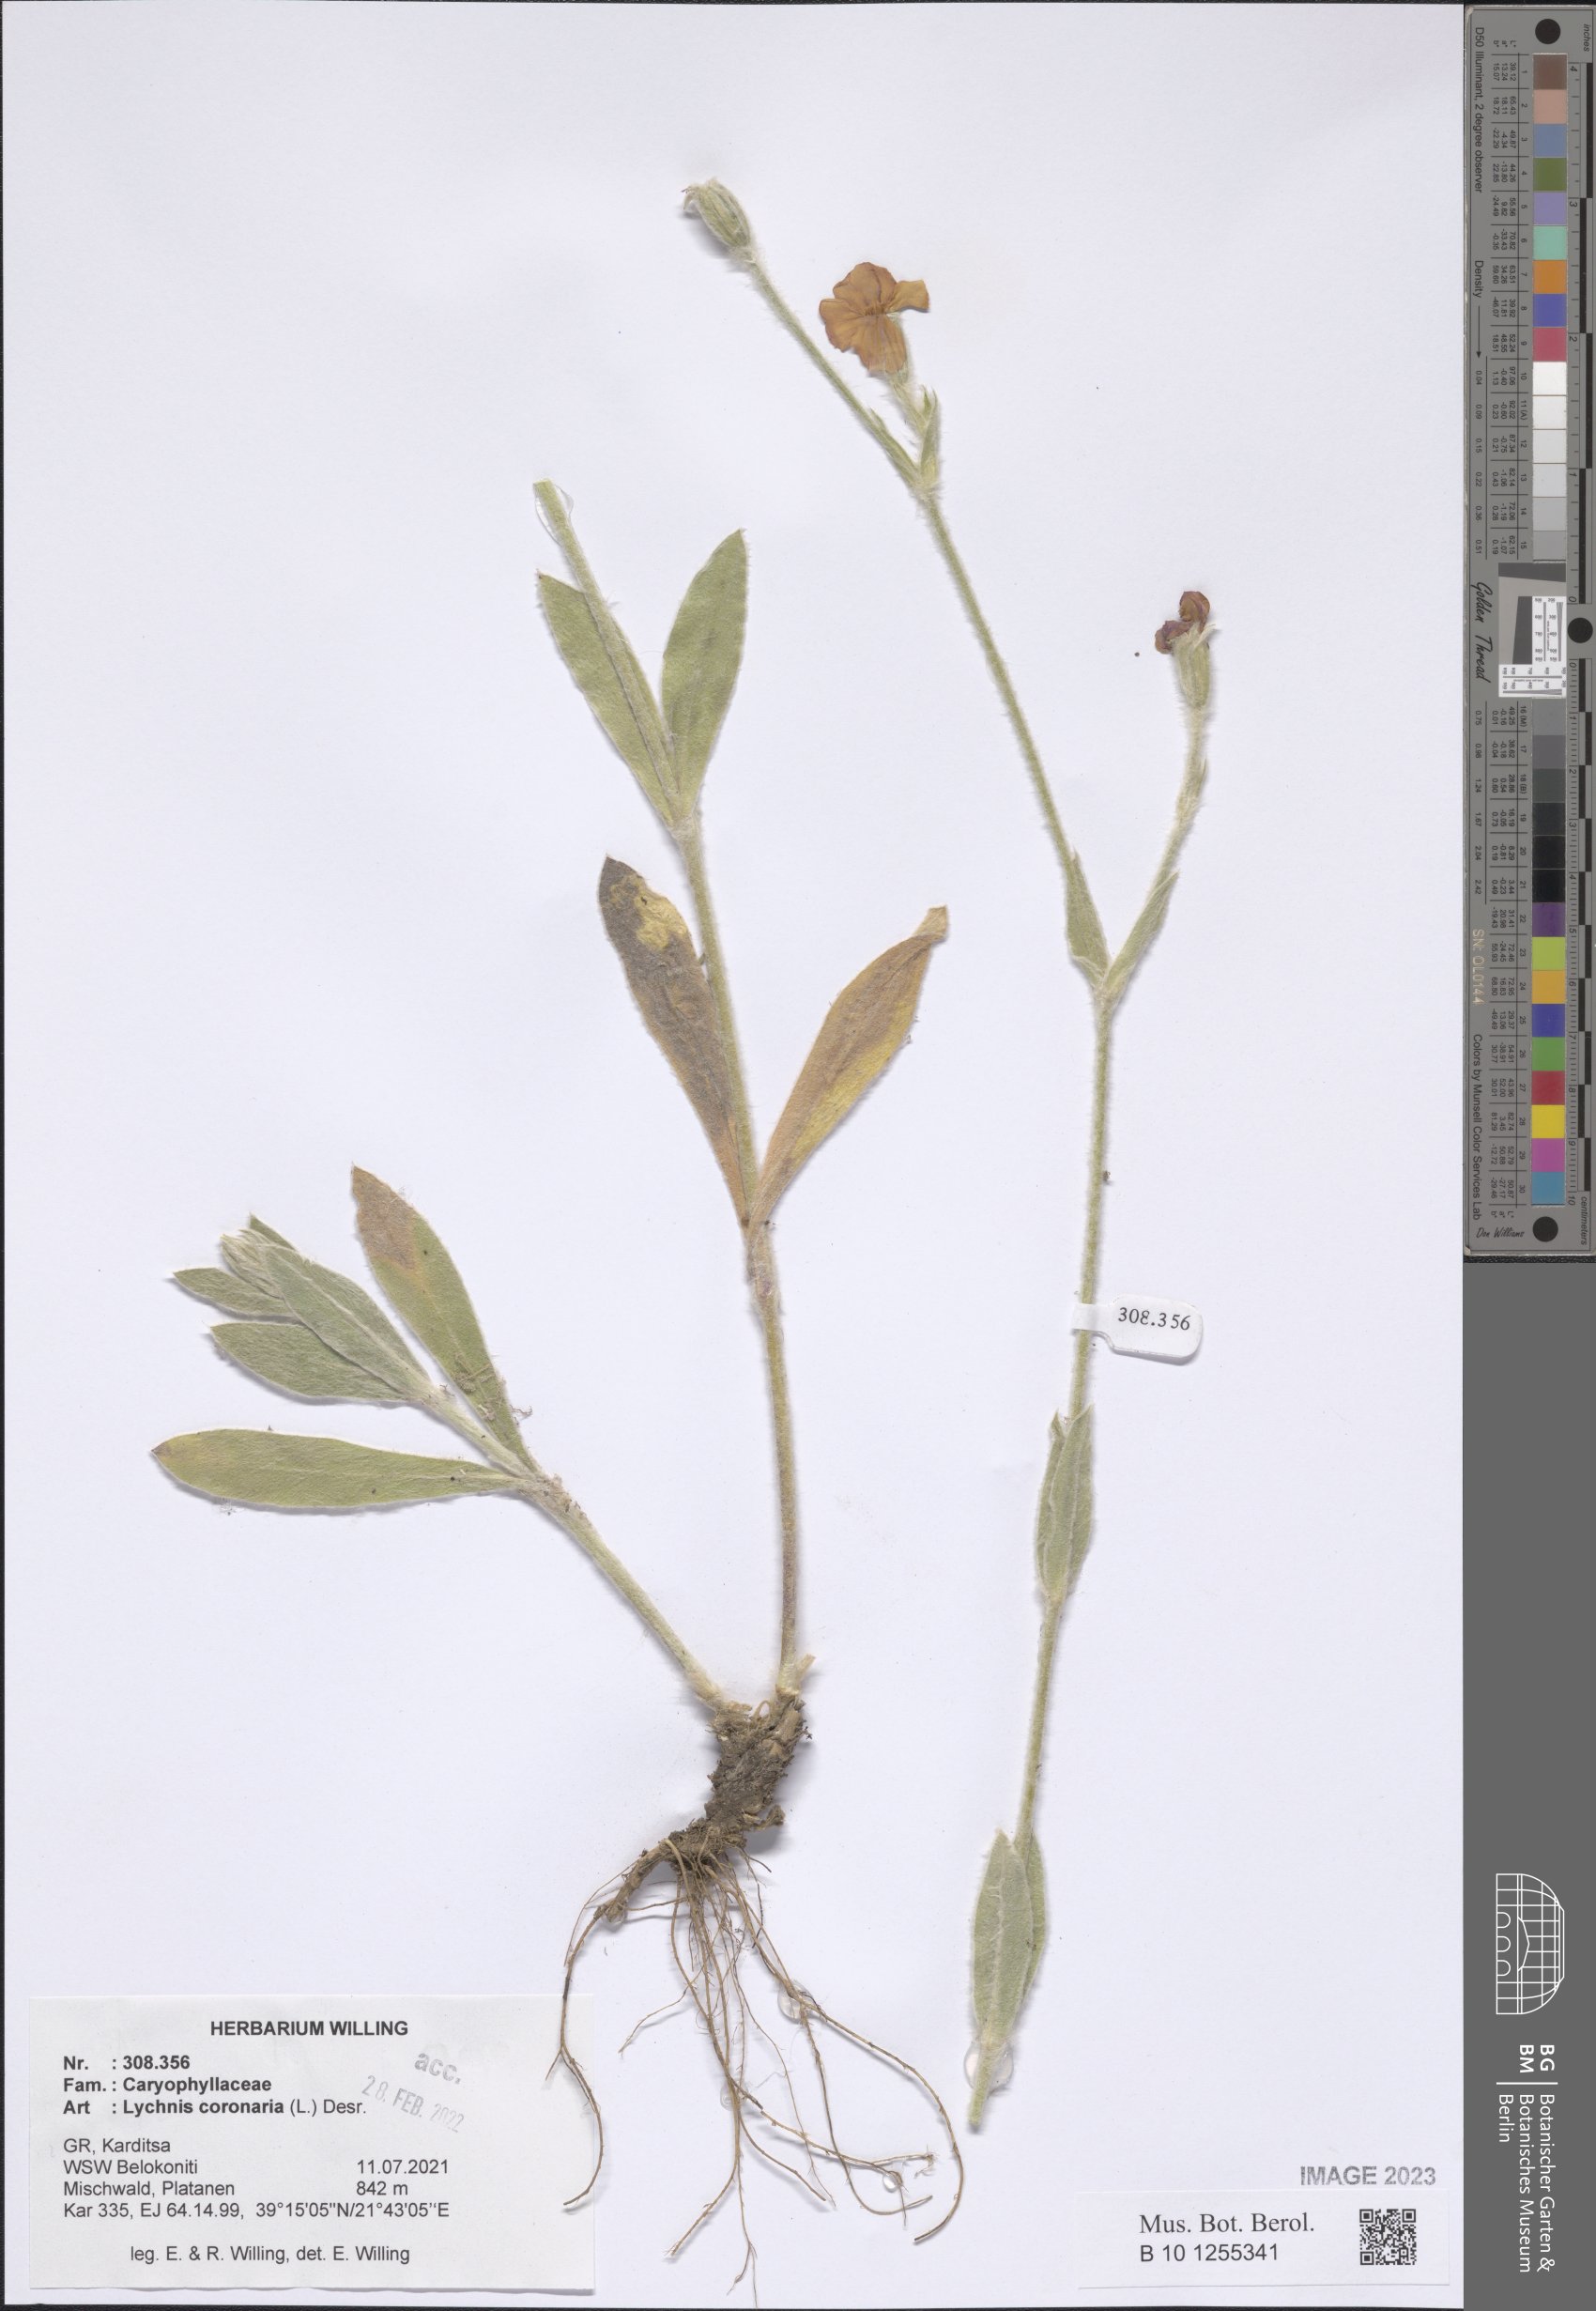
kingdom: Plantae
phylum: Tracheophyta
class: Magnoliopsida
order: Caryophyllales
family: Caryophyllaceae
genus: Silene
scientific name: Silene coronaria
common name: Rose campion
